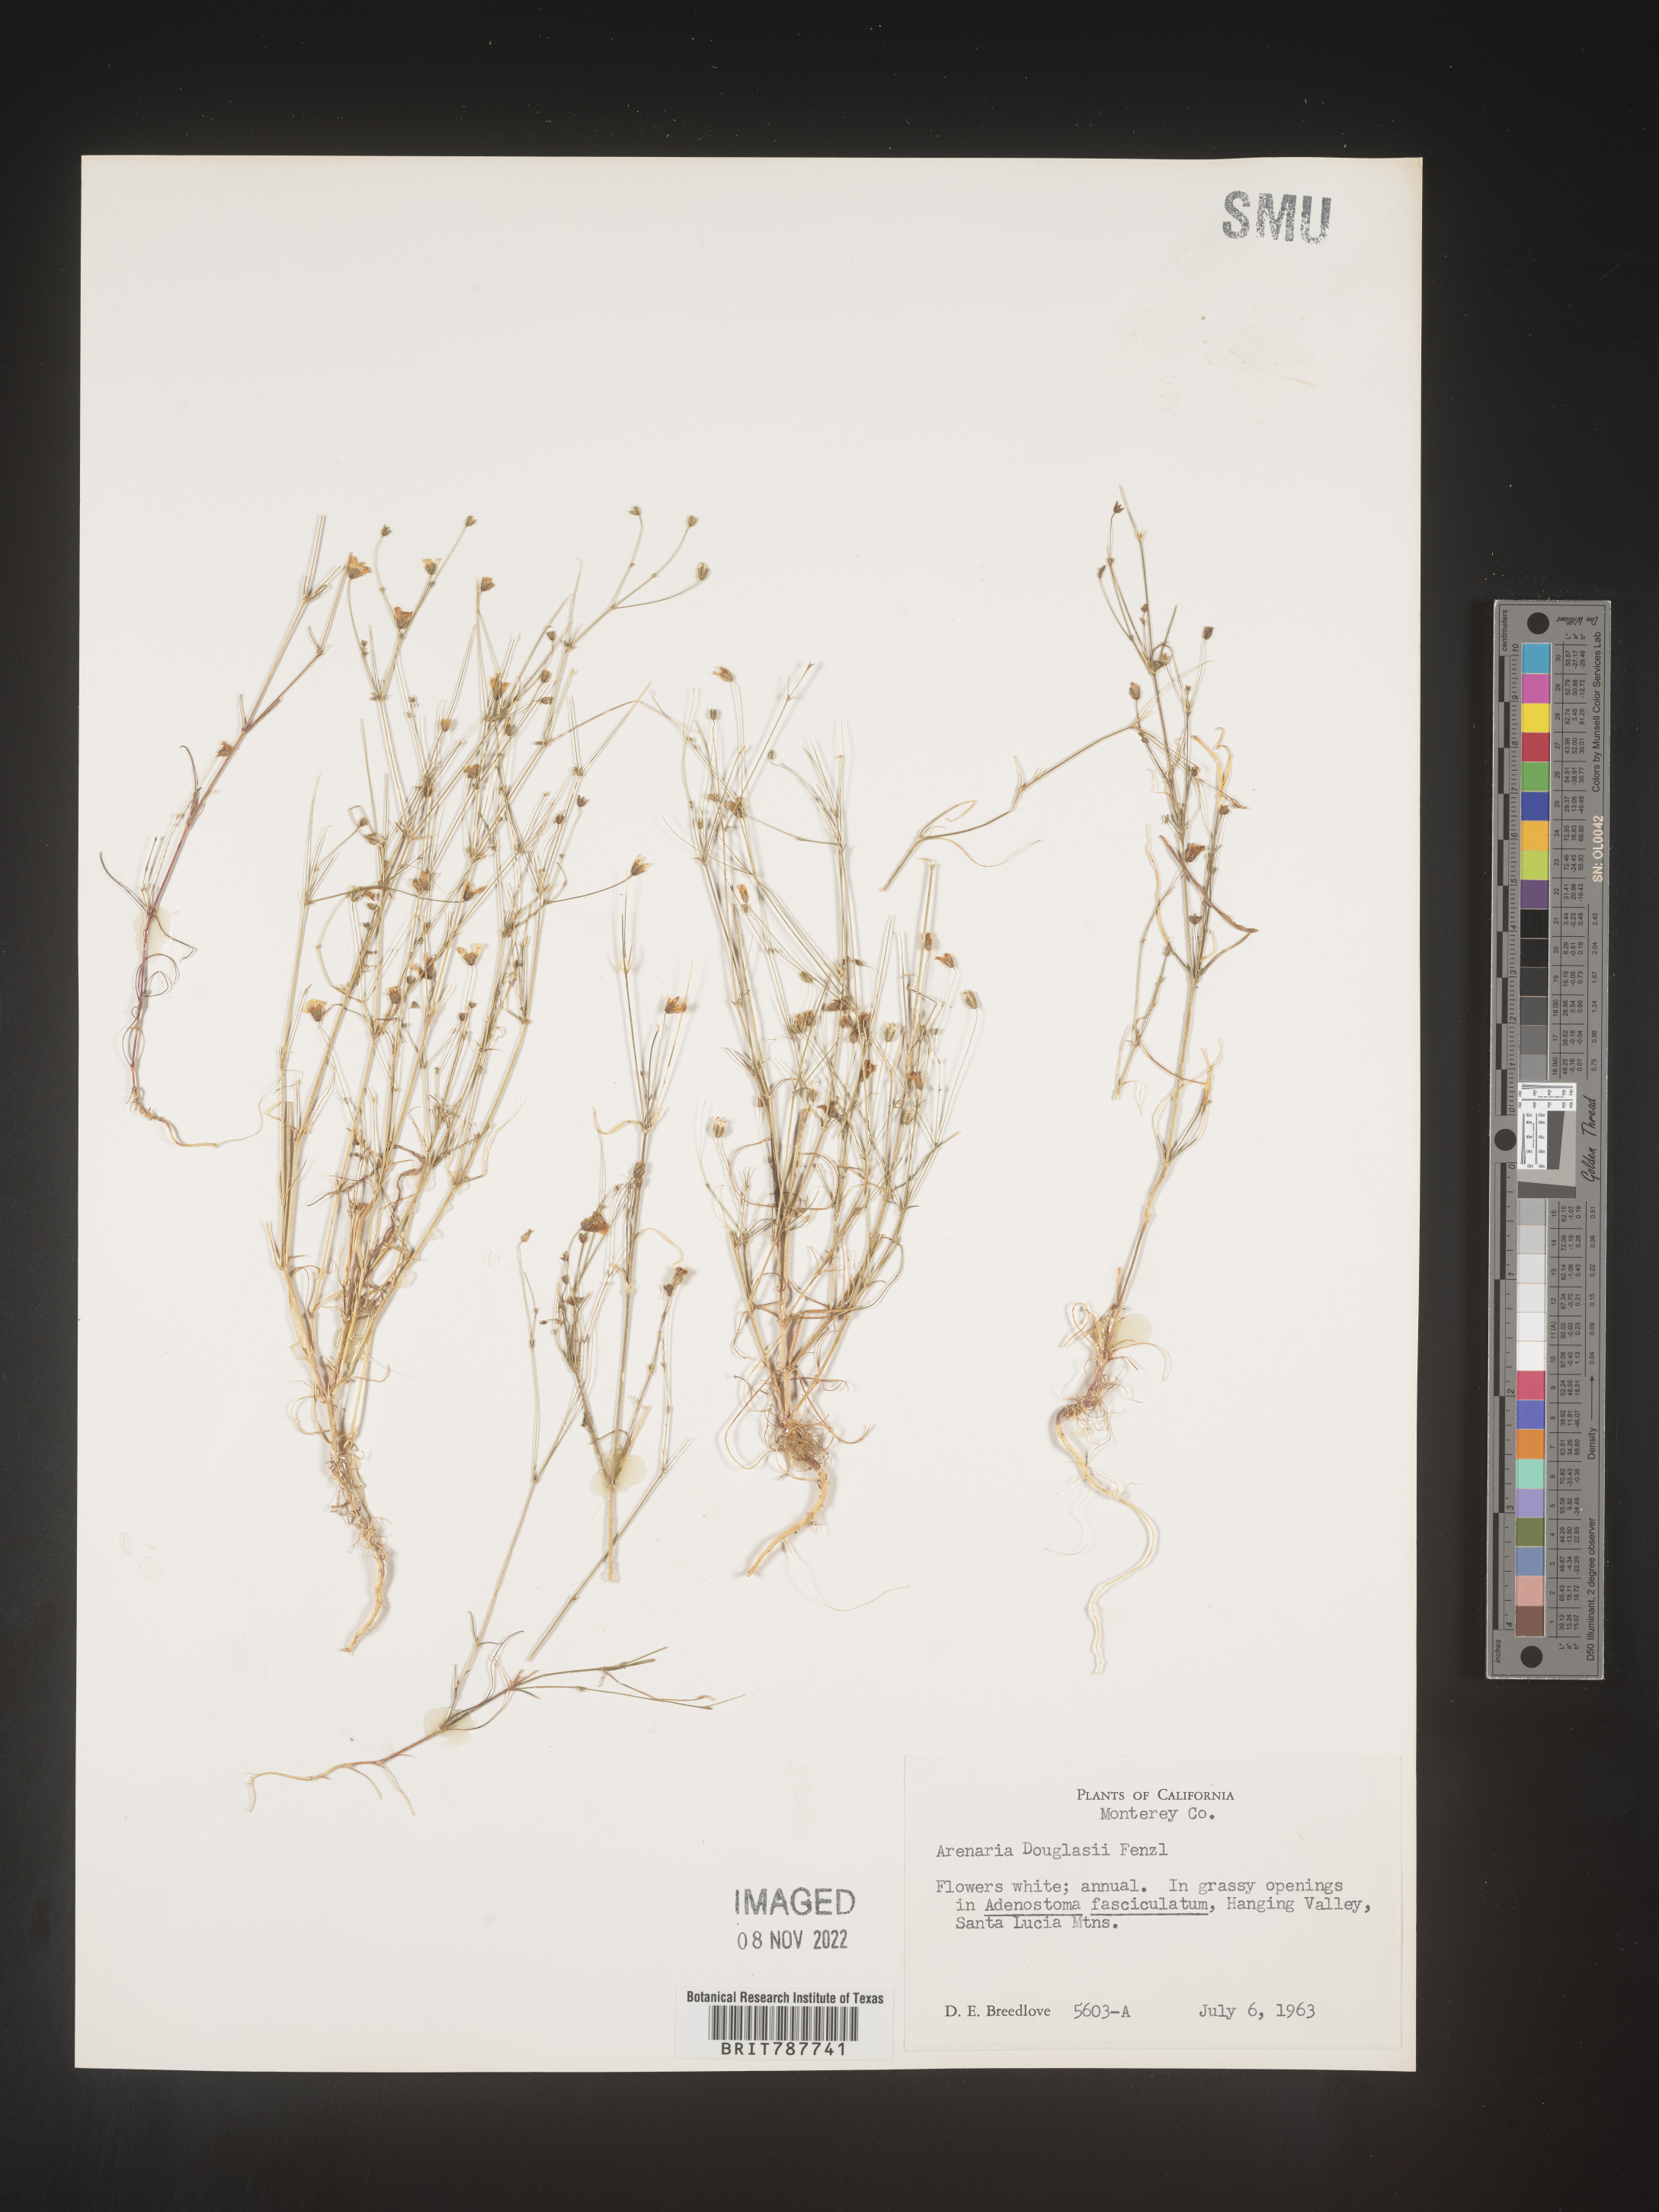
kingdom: Plantae
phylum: Tracheophyta
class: Magnoliopsida
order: Caryophyllales
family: Caryophyllaceae
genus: Arenaria
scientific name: Arenaria
